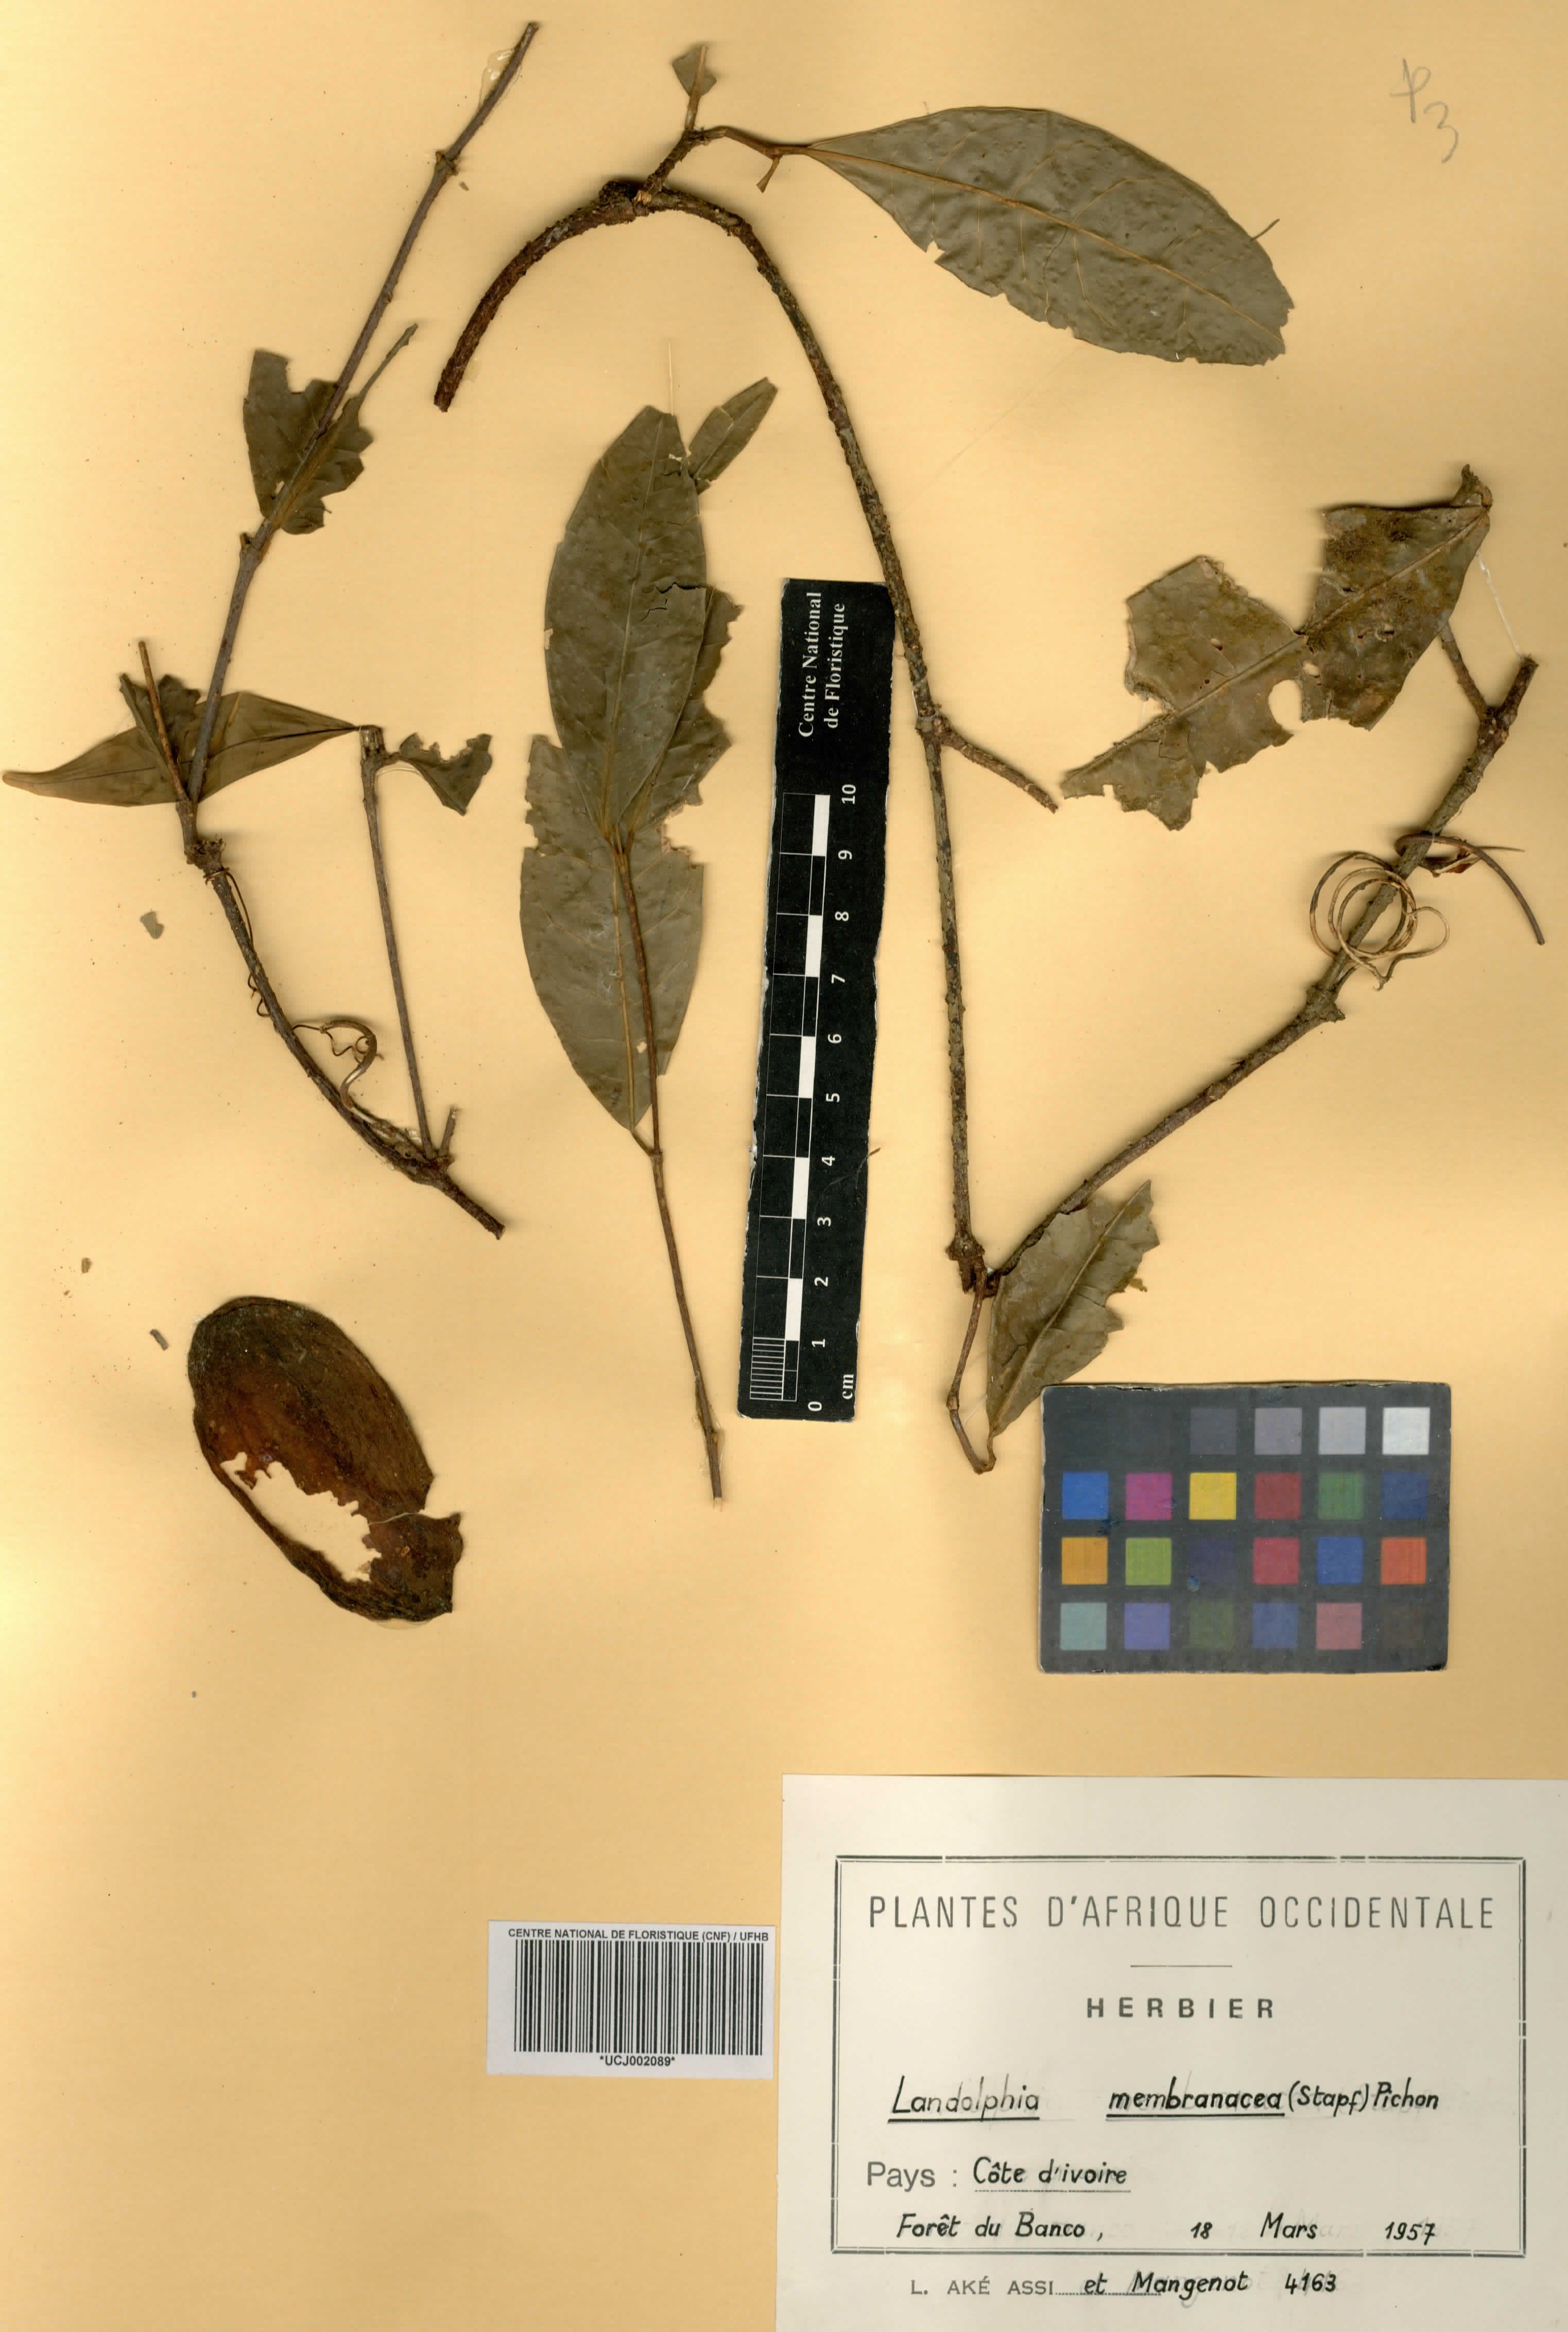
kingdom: Plantae
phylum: Tracheophyta
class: Magnoliopsida
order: Gentianales
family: Apocynaceae
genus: Landolphia
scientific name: Landolphia membranacea
